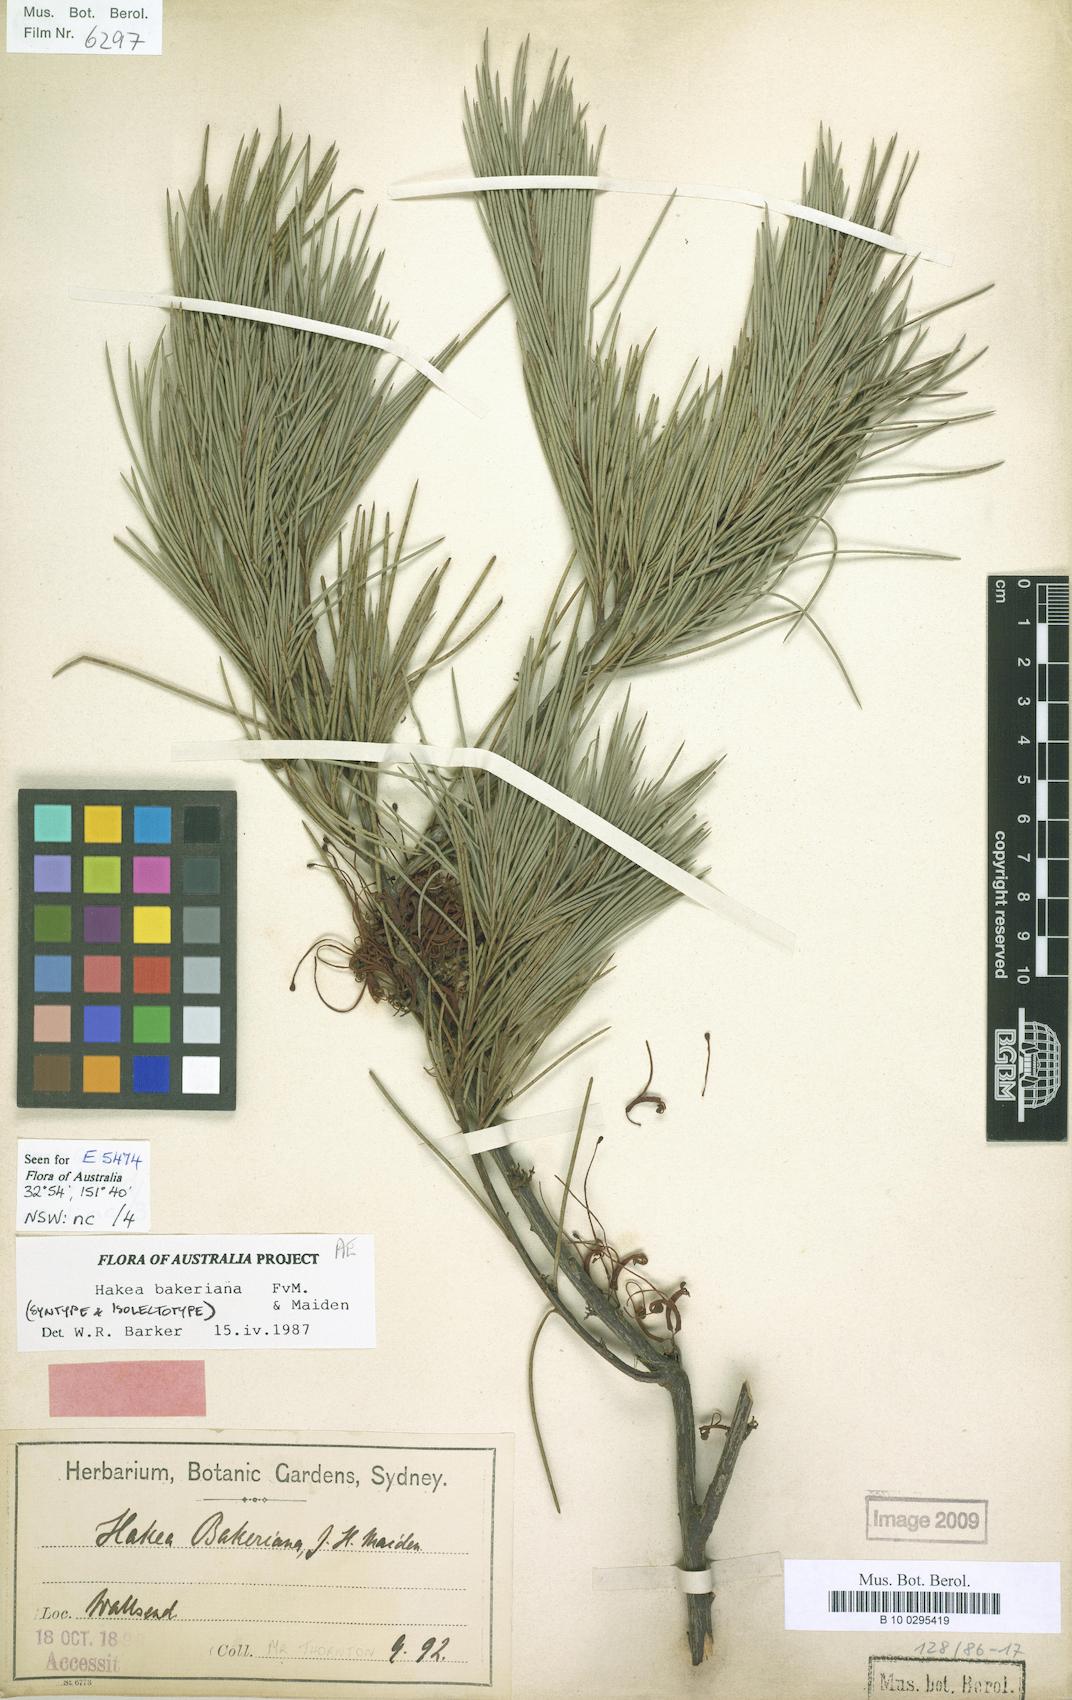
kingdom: Plantae
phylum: Tracheophyta
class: Magnoliopsida
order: Proteales
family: Proteaceae
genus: Hakea
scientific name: Hakea bakeriana
